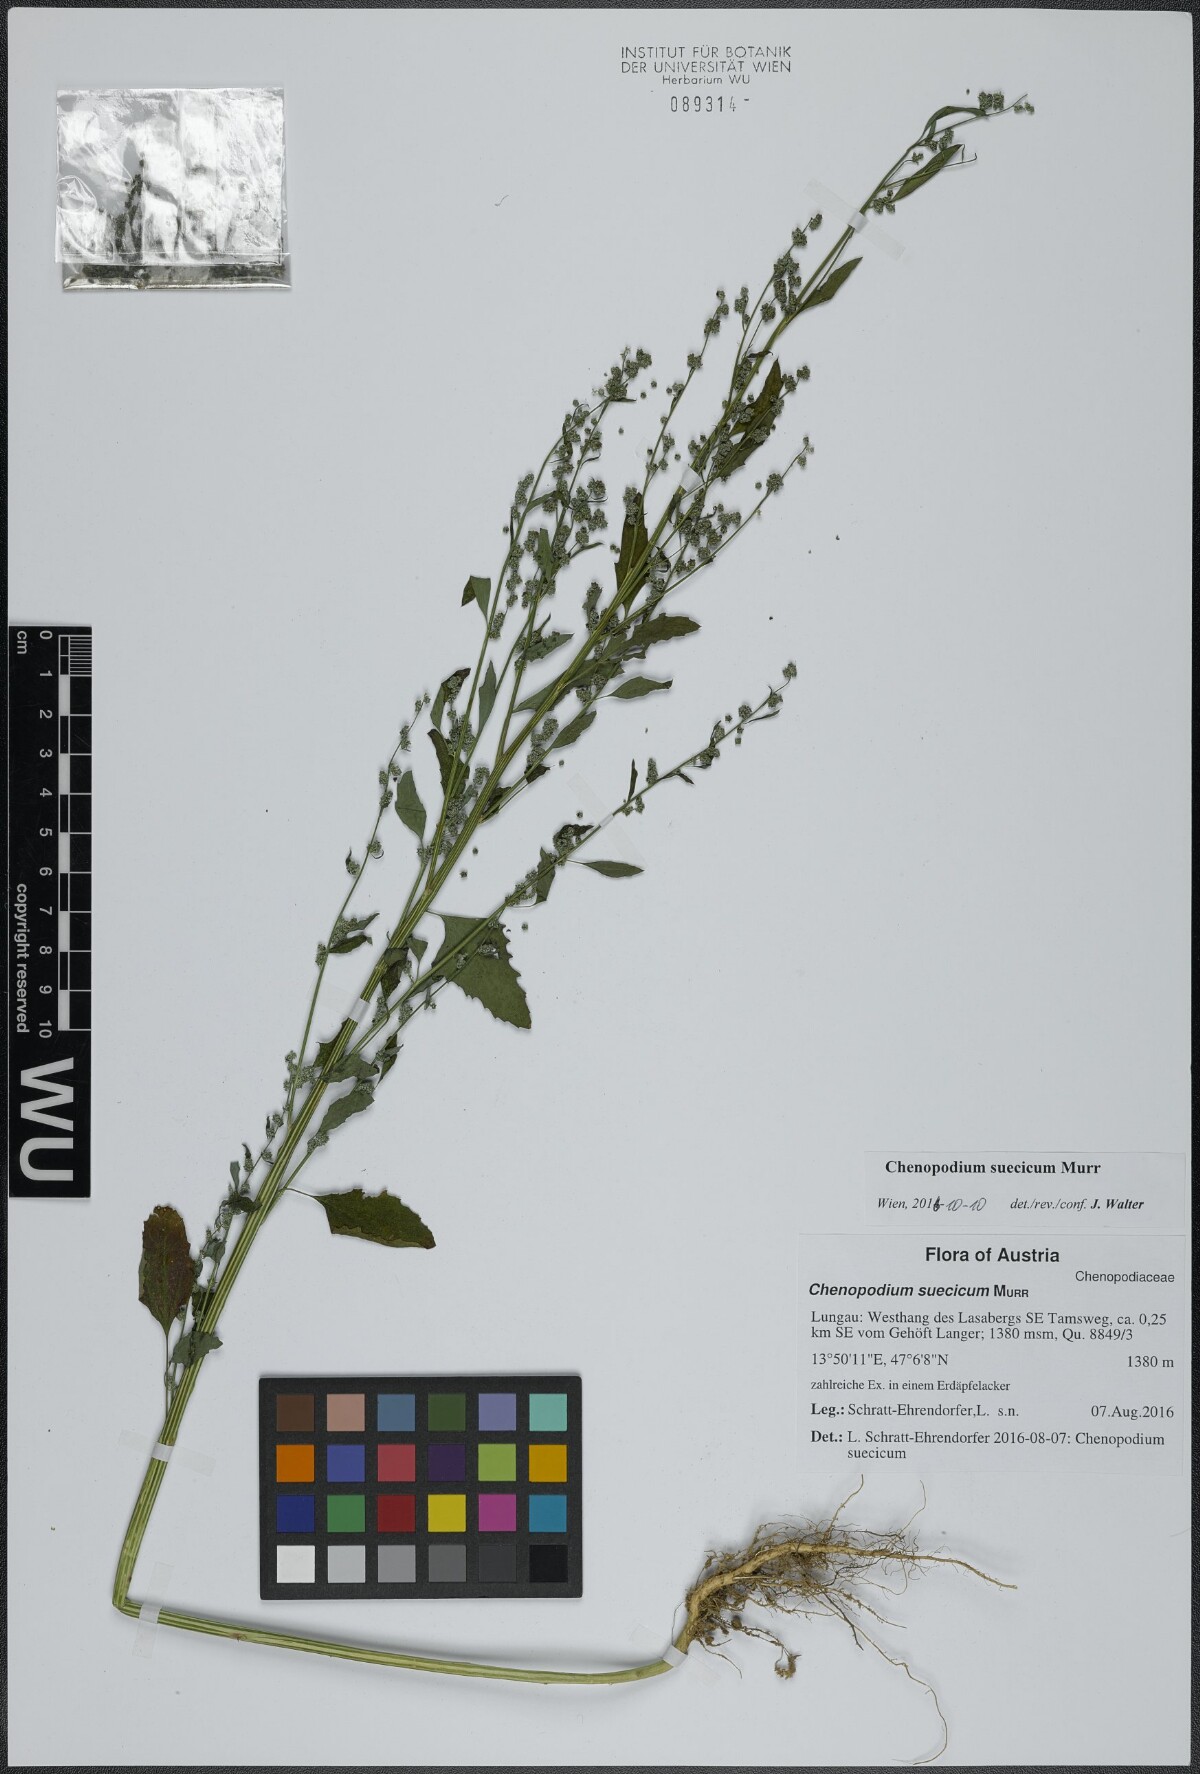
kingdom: Plantae
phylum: Tracheophyta
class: Magnoliopsida
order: Caryophyllales
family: Amaranthaceae
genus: Chenopodium
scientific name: Chenopodium suecicum
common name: Swedish goosefoot
